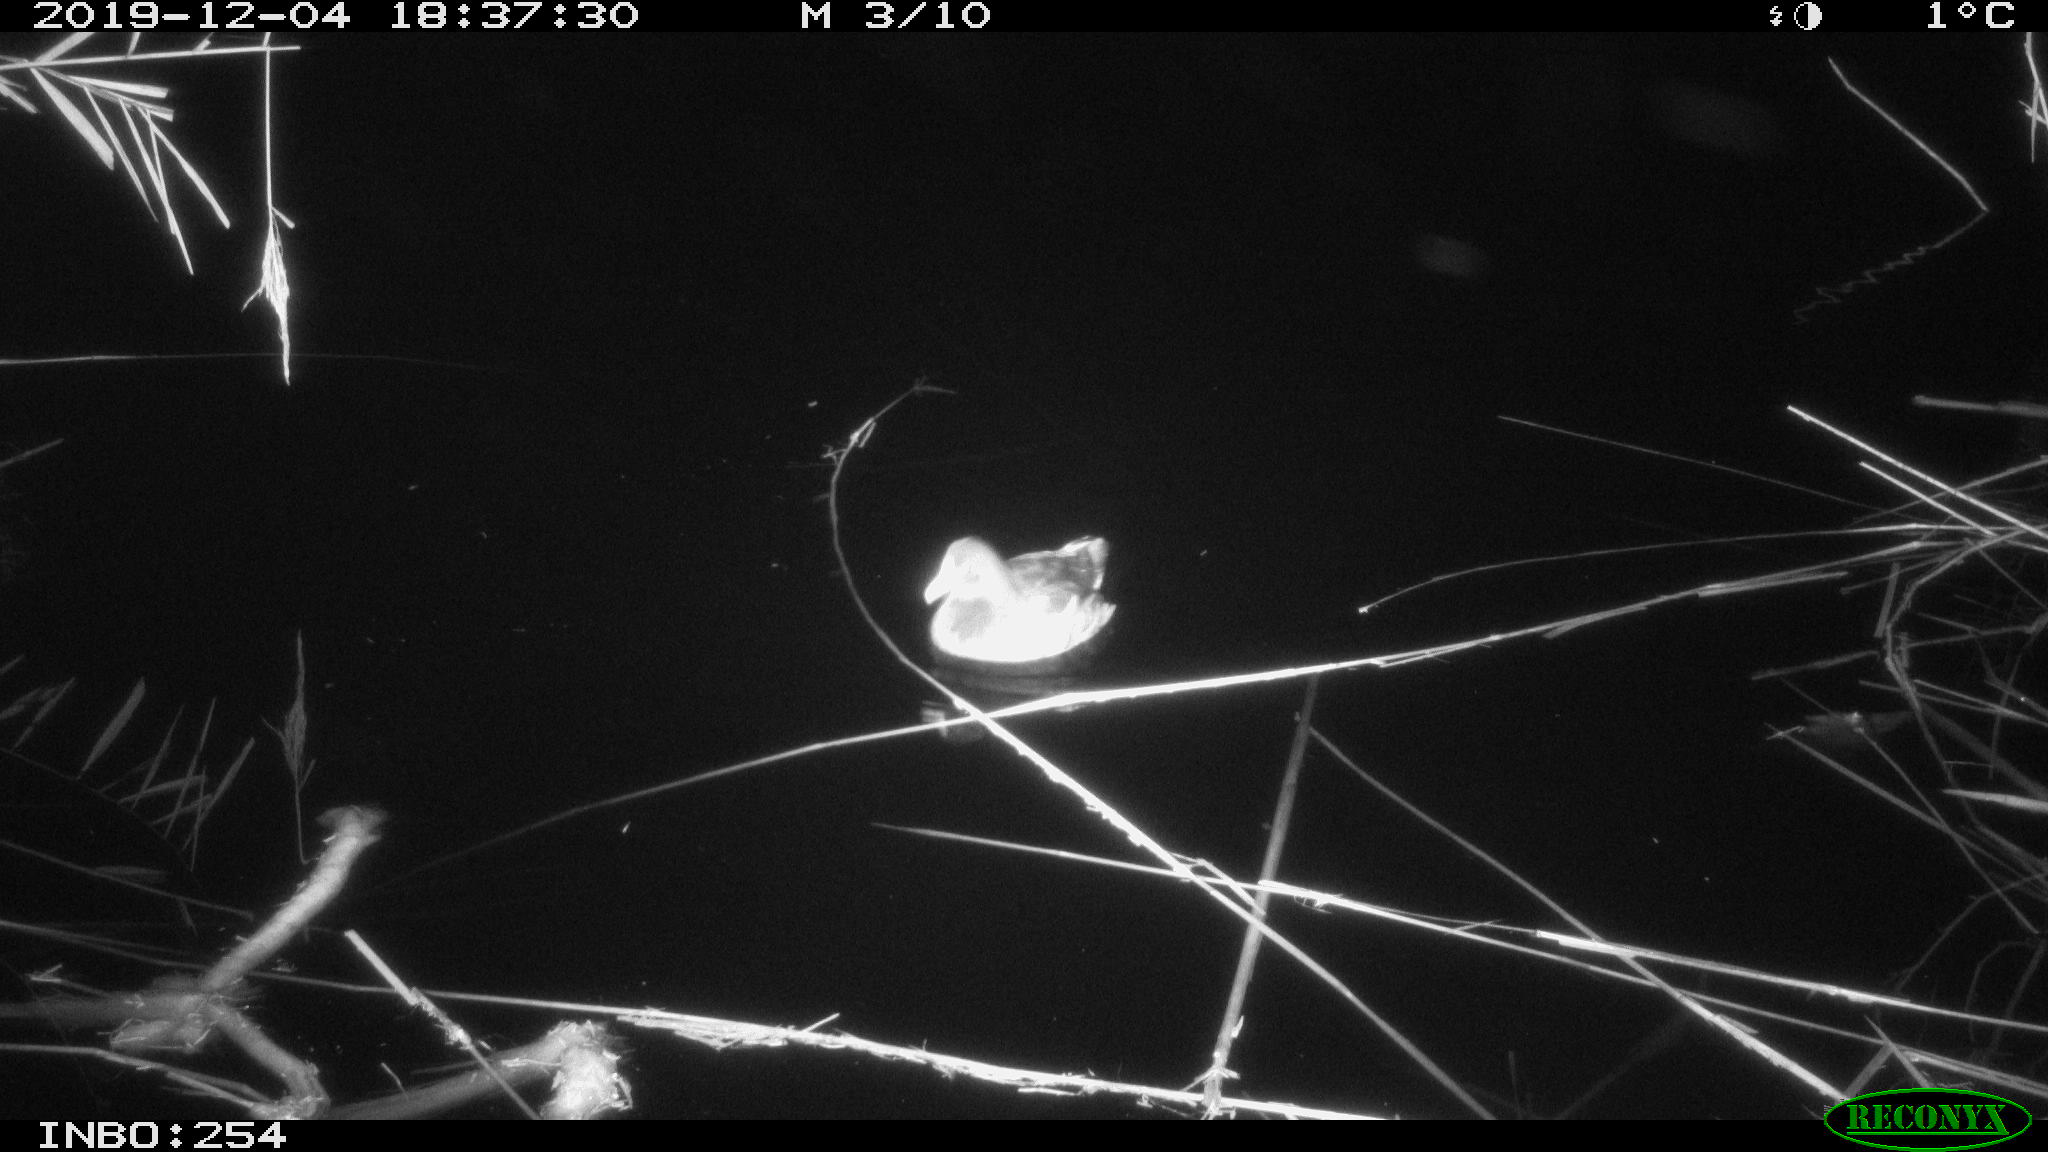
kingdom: Animalia
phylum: Chordata
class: Aves
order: Gruiformes
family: Rallidae
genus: Gallinula
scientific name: Gallinula chloropus
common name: Common moorhen
